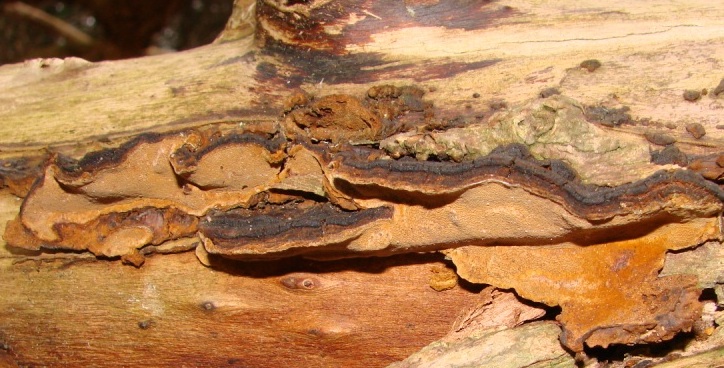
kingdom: Fungi
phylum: Basidiomycota
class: Agaricomycetes
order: Hymenochaetales
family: Hymenochaetaceae
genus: Phellinopsis
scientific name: Phellinopsis conchata
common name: pile-ildporesvamp
